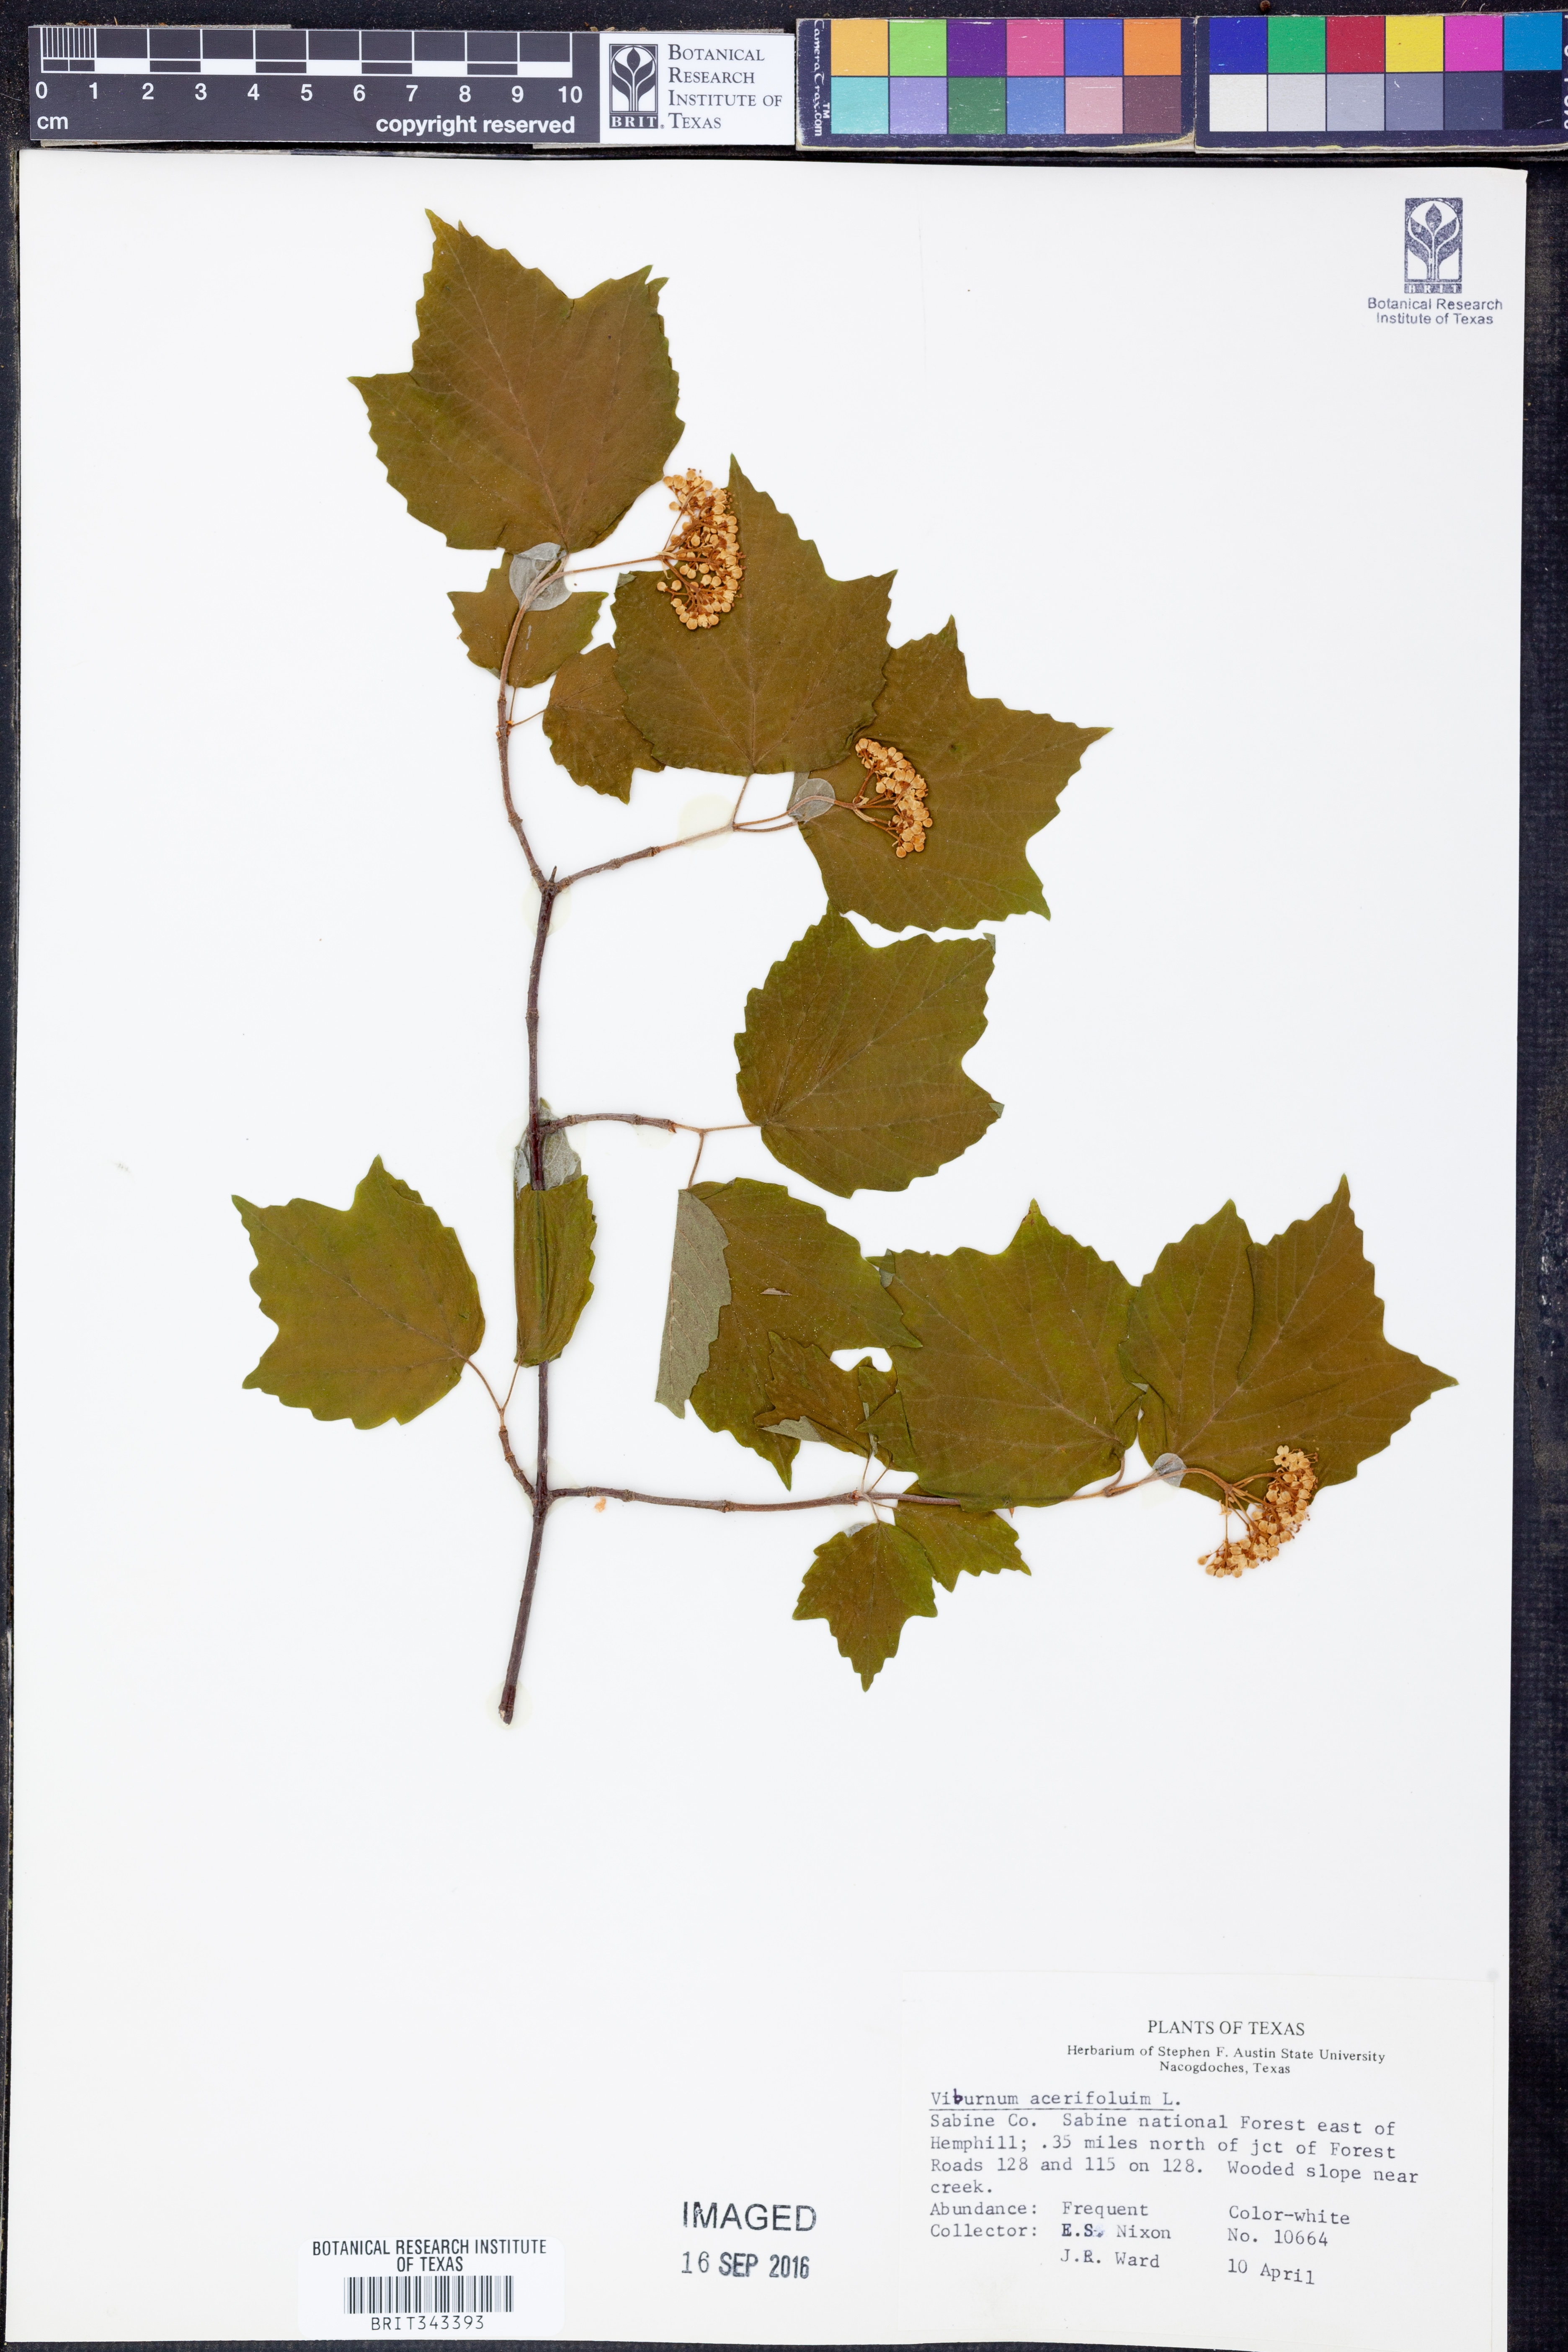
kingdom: Plantae
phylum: Tracheophyta
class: Magnoliopsida
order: Dipsacales
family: Viburnaceae
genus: Viburnum
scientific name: Viburnum acerifolium
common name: Dockmackie
